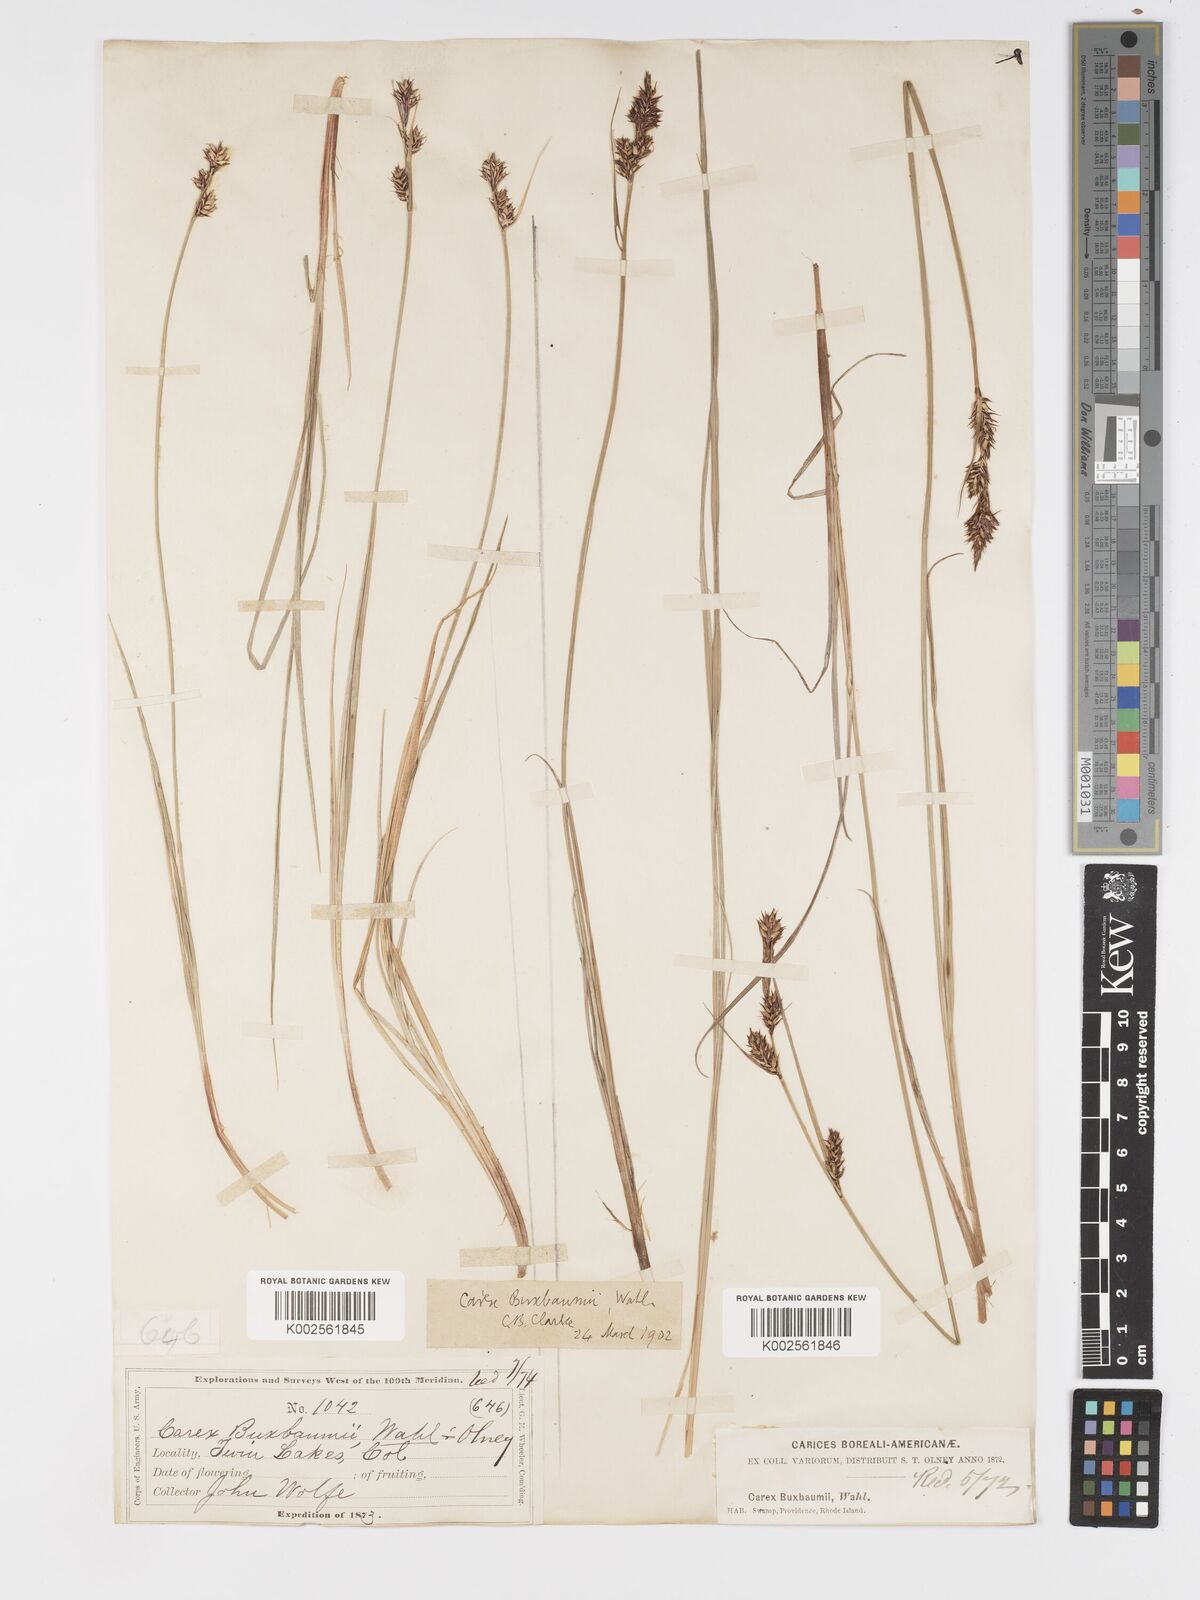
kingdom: Plantae
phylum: Tracheophyta
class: Liliopsida
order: Poales
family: Cyperaceae
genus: Carex
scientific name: Carex buxbaumii
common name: Club sedge
